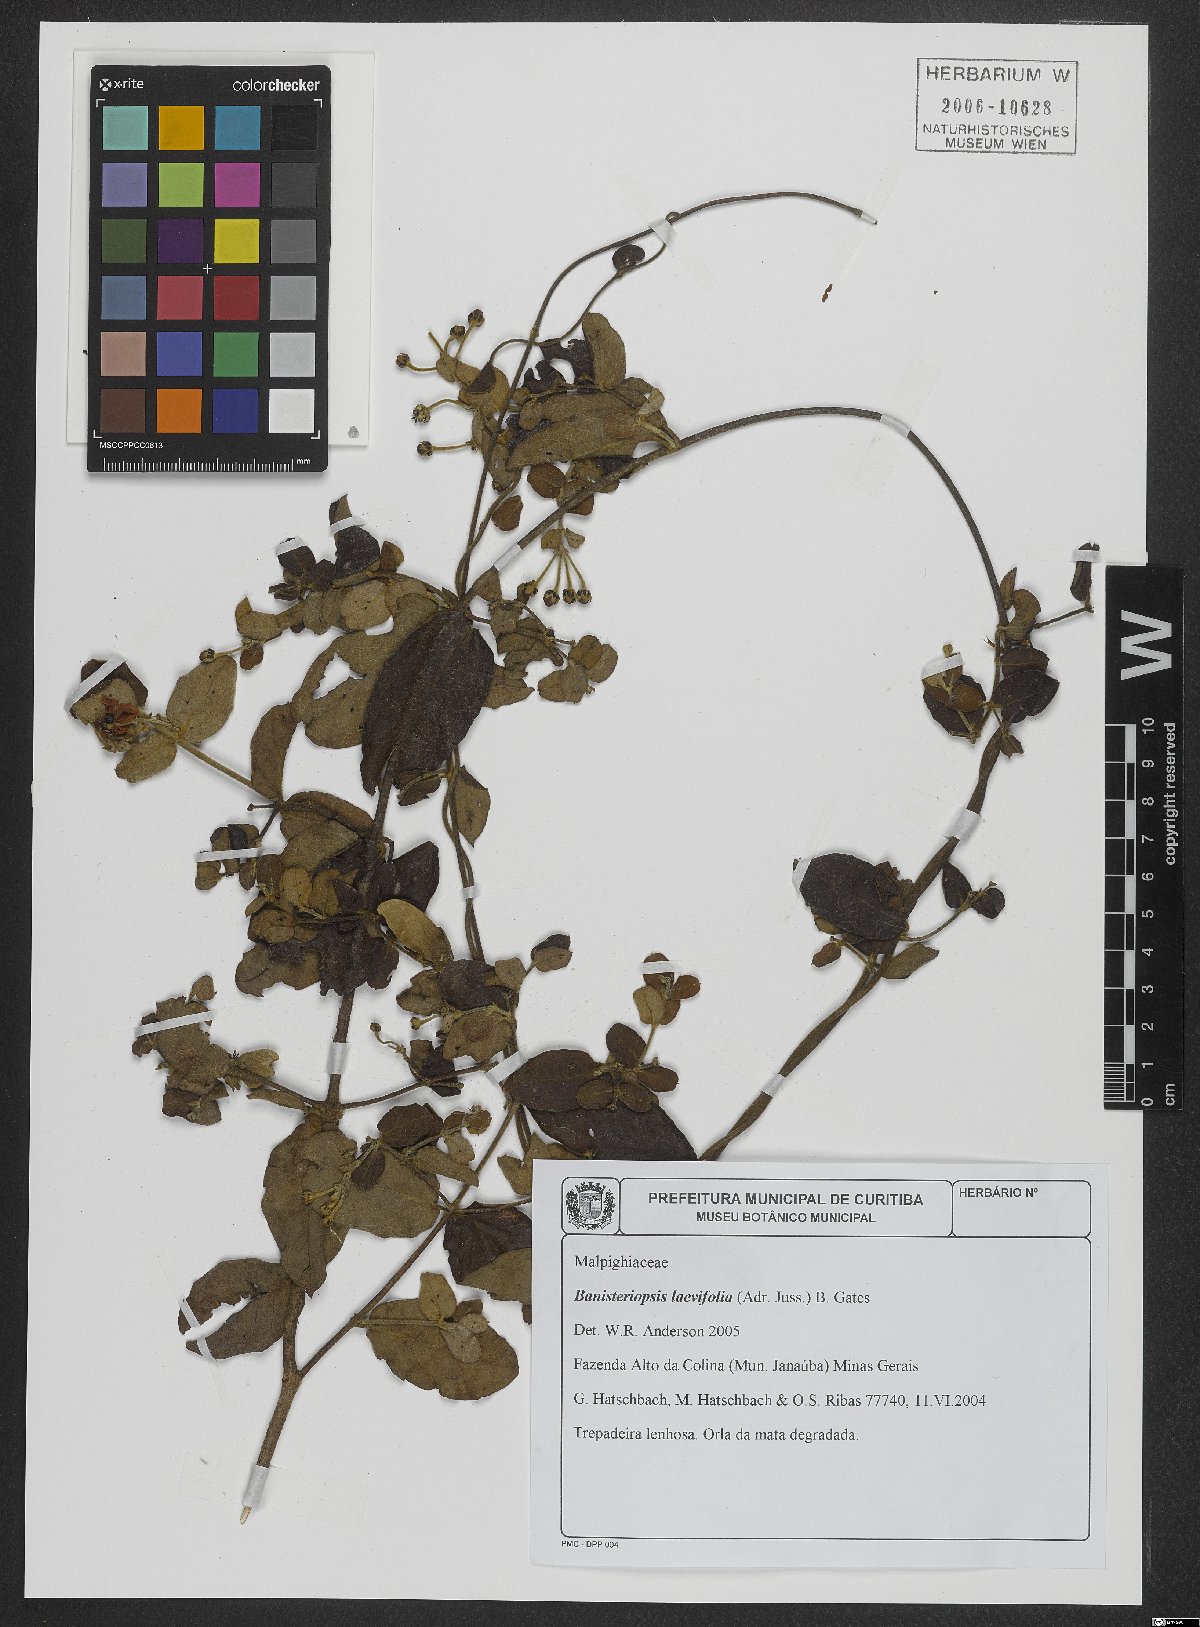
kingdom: Plantae
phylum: Tracheophyta
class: Magnoliopsida
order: Malpighiales
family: Malpighiaceae
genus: Banisteriopsis
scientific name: Banisteriopsis laevifolia
